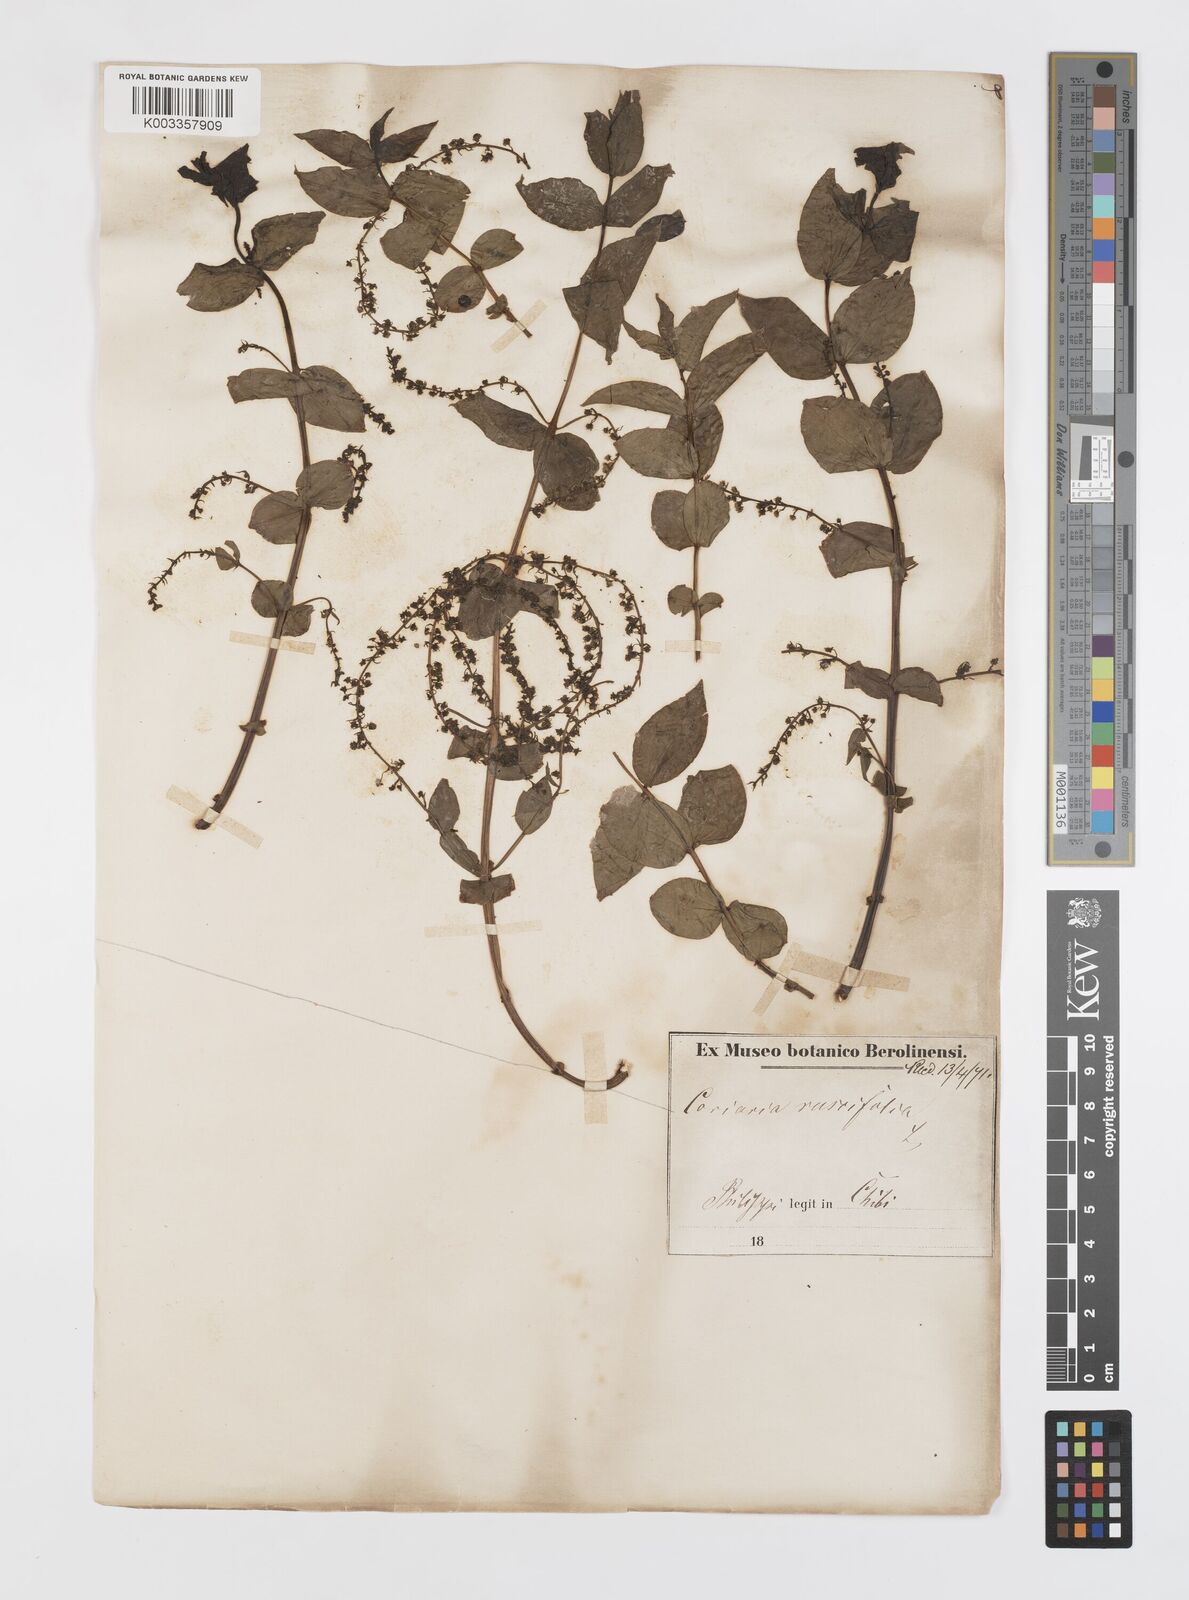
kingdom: Plantae
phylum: Tracheophyta
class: Magnoliopsida
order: Cucurbitales
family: Coriariaceae
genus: Coriaria
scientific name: Coriaria ruscifolia
